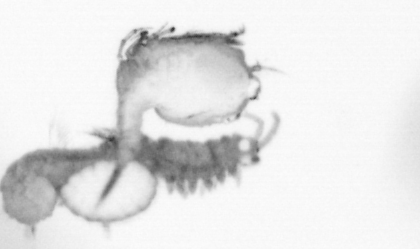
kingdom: Animalia
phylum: Annelida
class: Polychaeta
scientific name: Polychaeta
